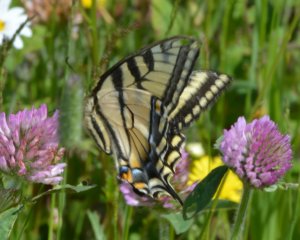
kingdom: Animalia
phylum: Arthropoda
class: Insecta
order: Lepidoptera
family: Papilionidae
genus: Pterourus
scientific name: Pterourus canadensis
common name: Canadian Tiger Swallowtail
